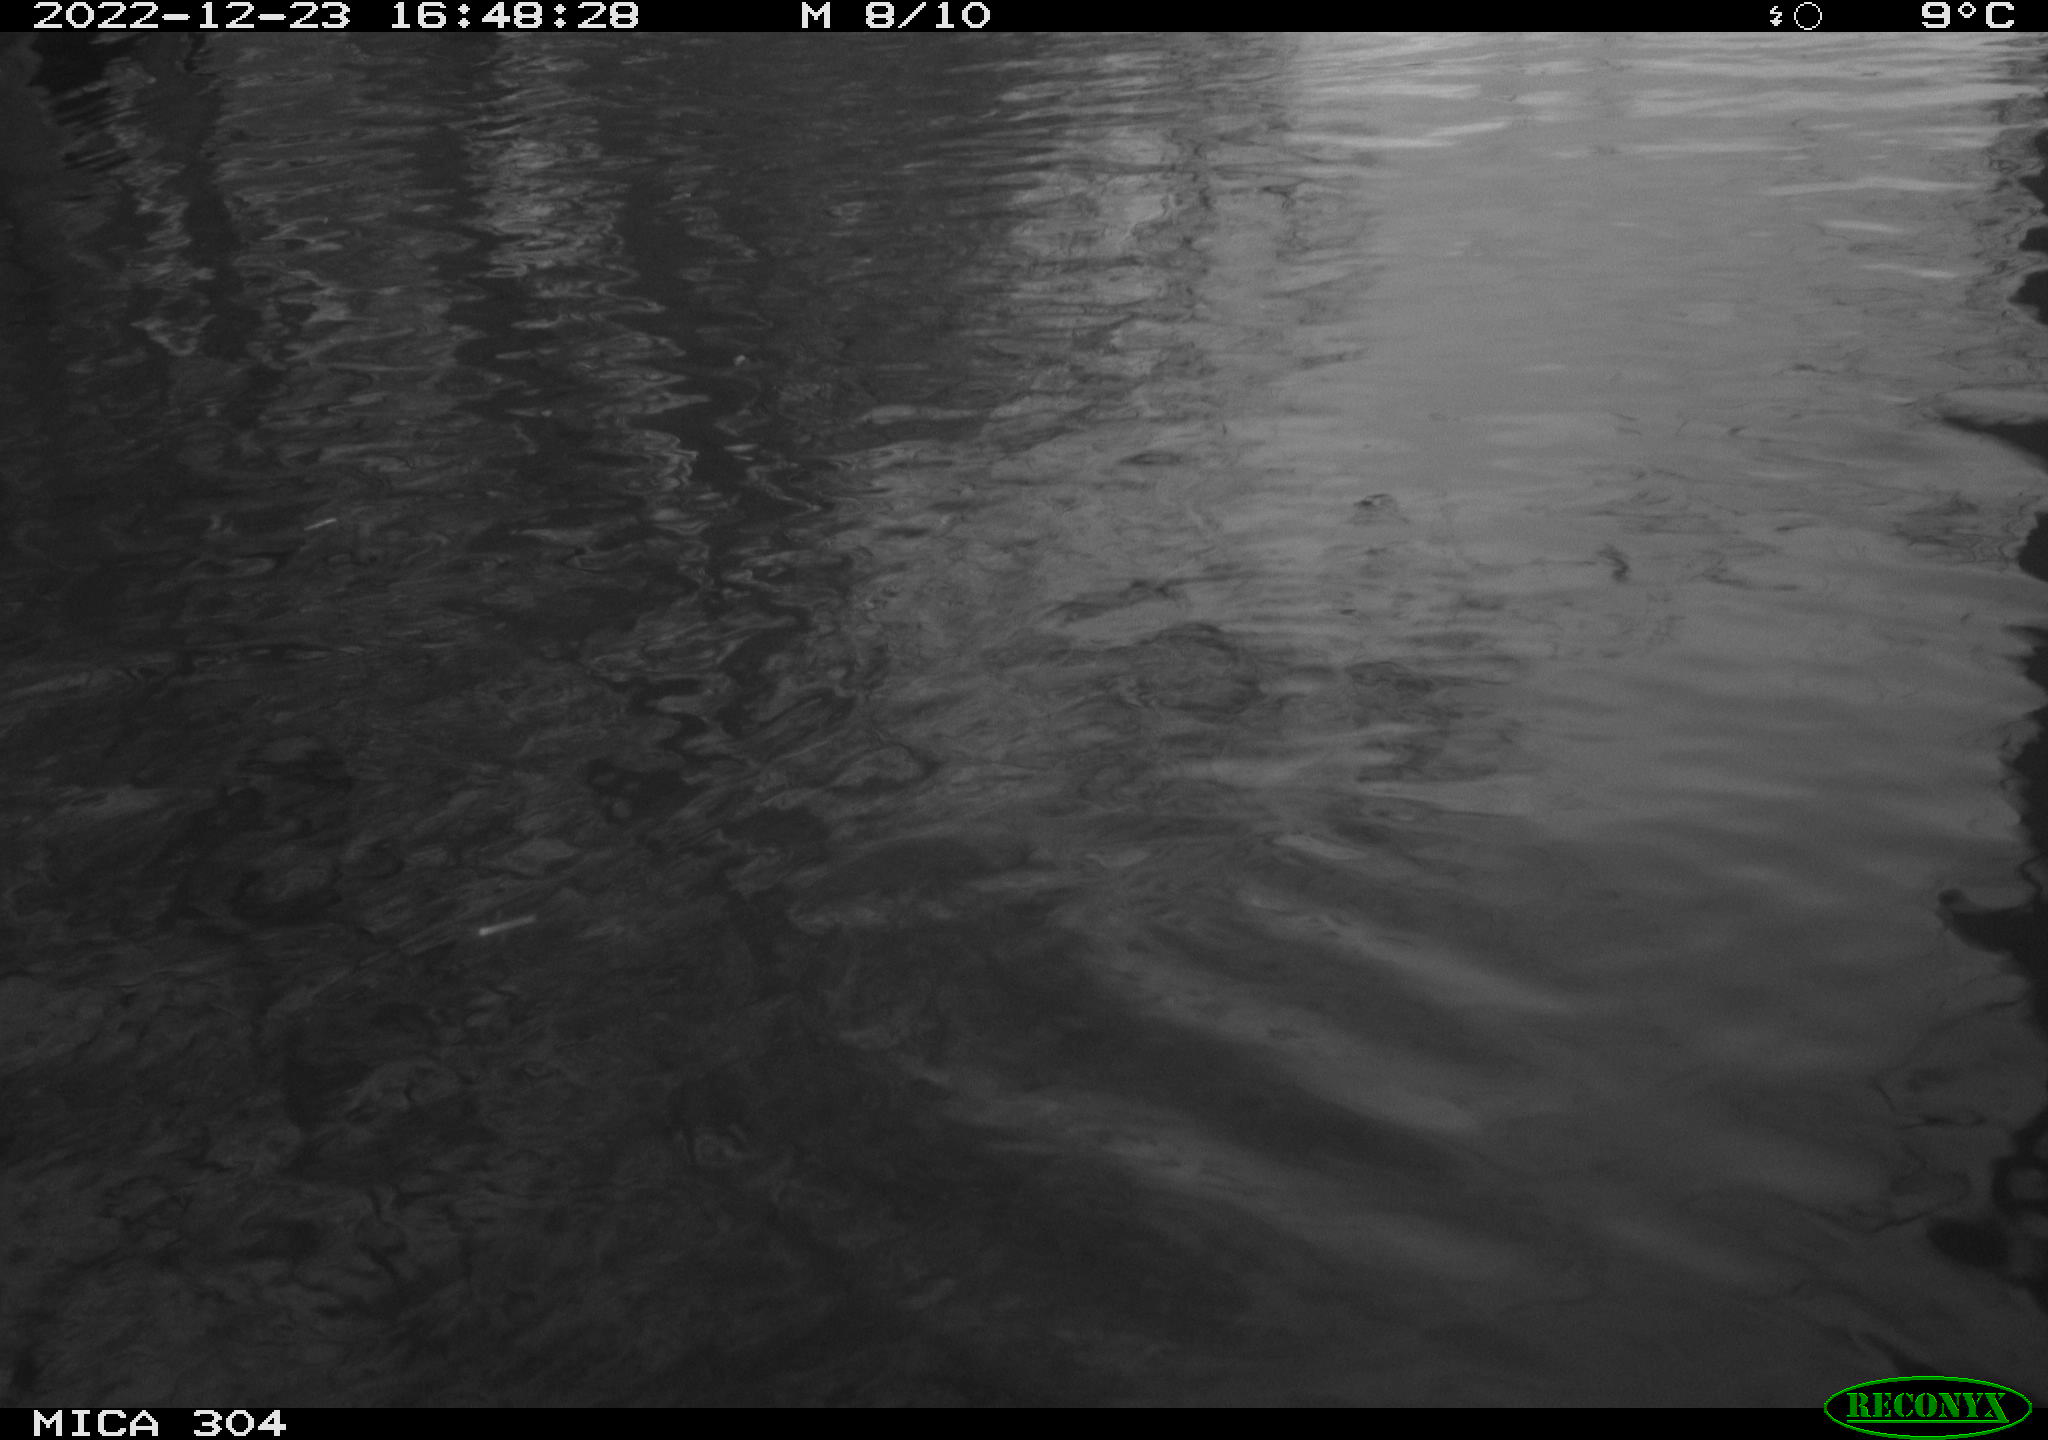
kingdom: Animalia
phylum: Chordata
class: Aves
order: Anseriformes
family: Anatidae
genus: Anas
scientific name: Anas
